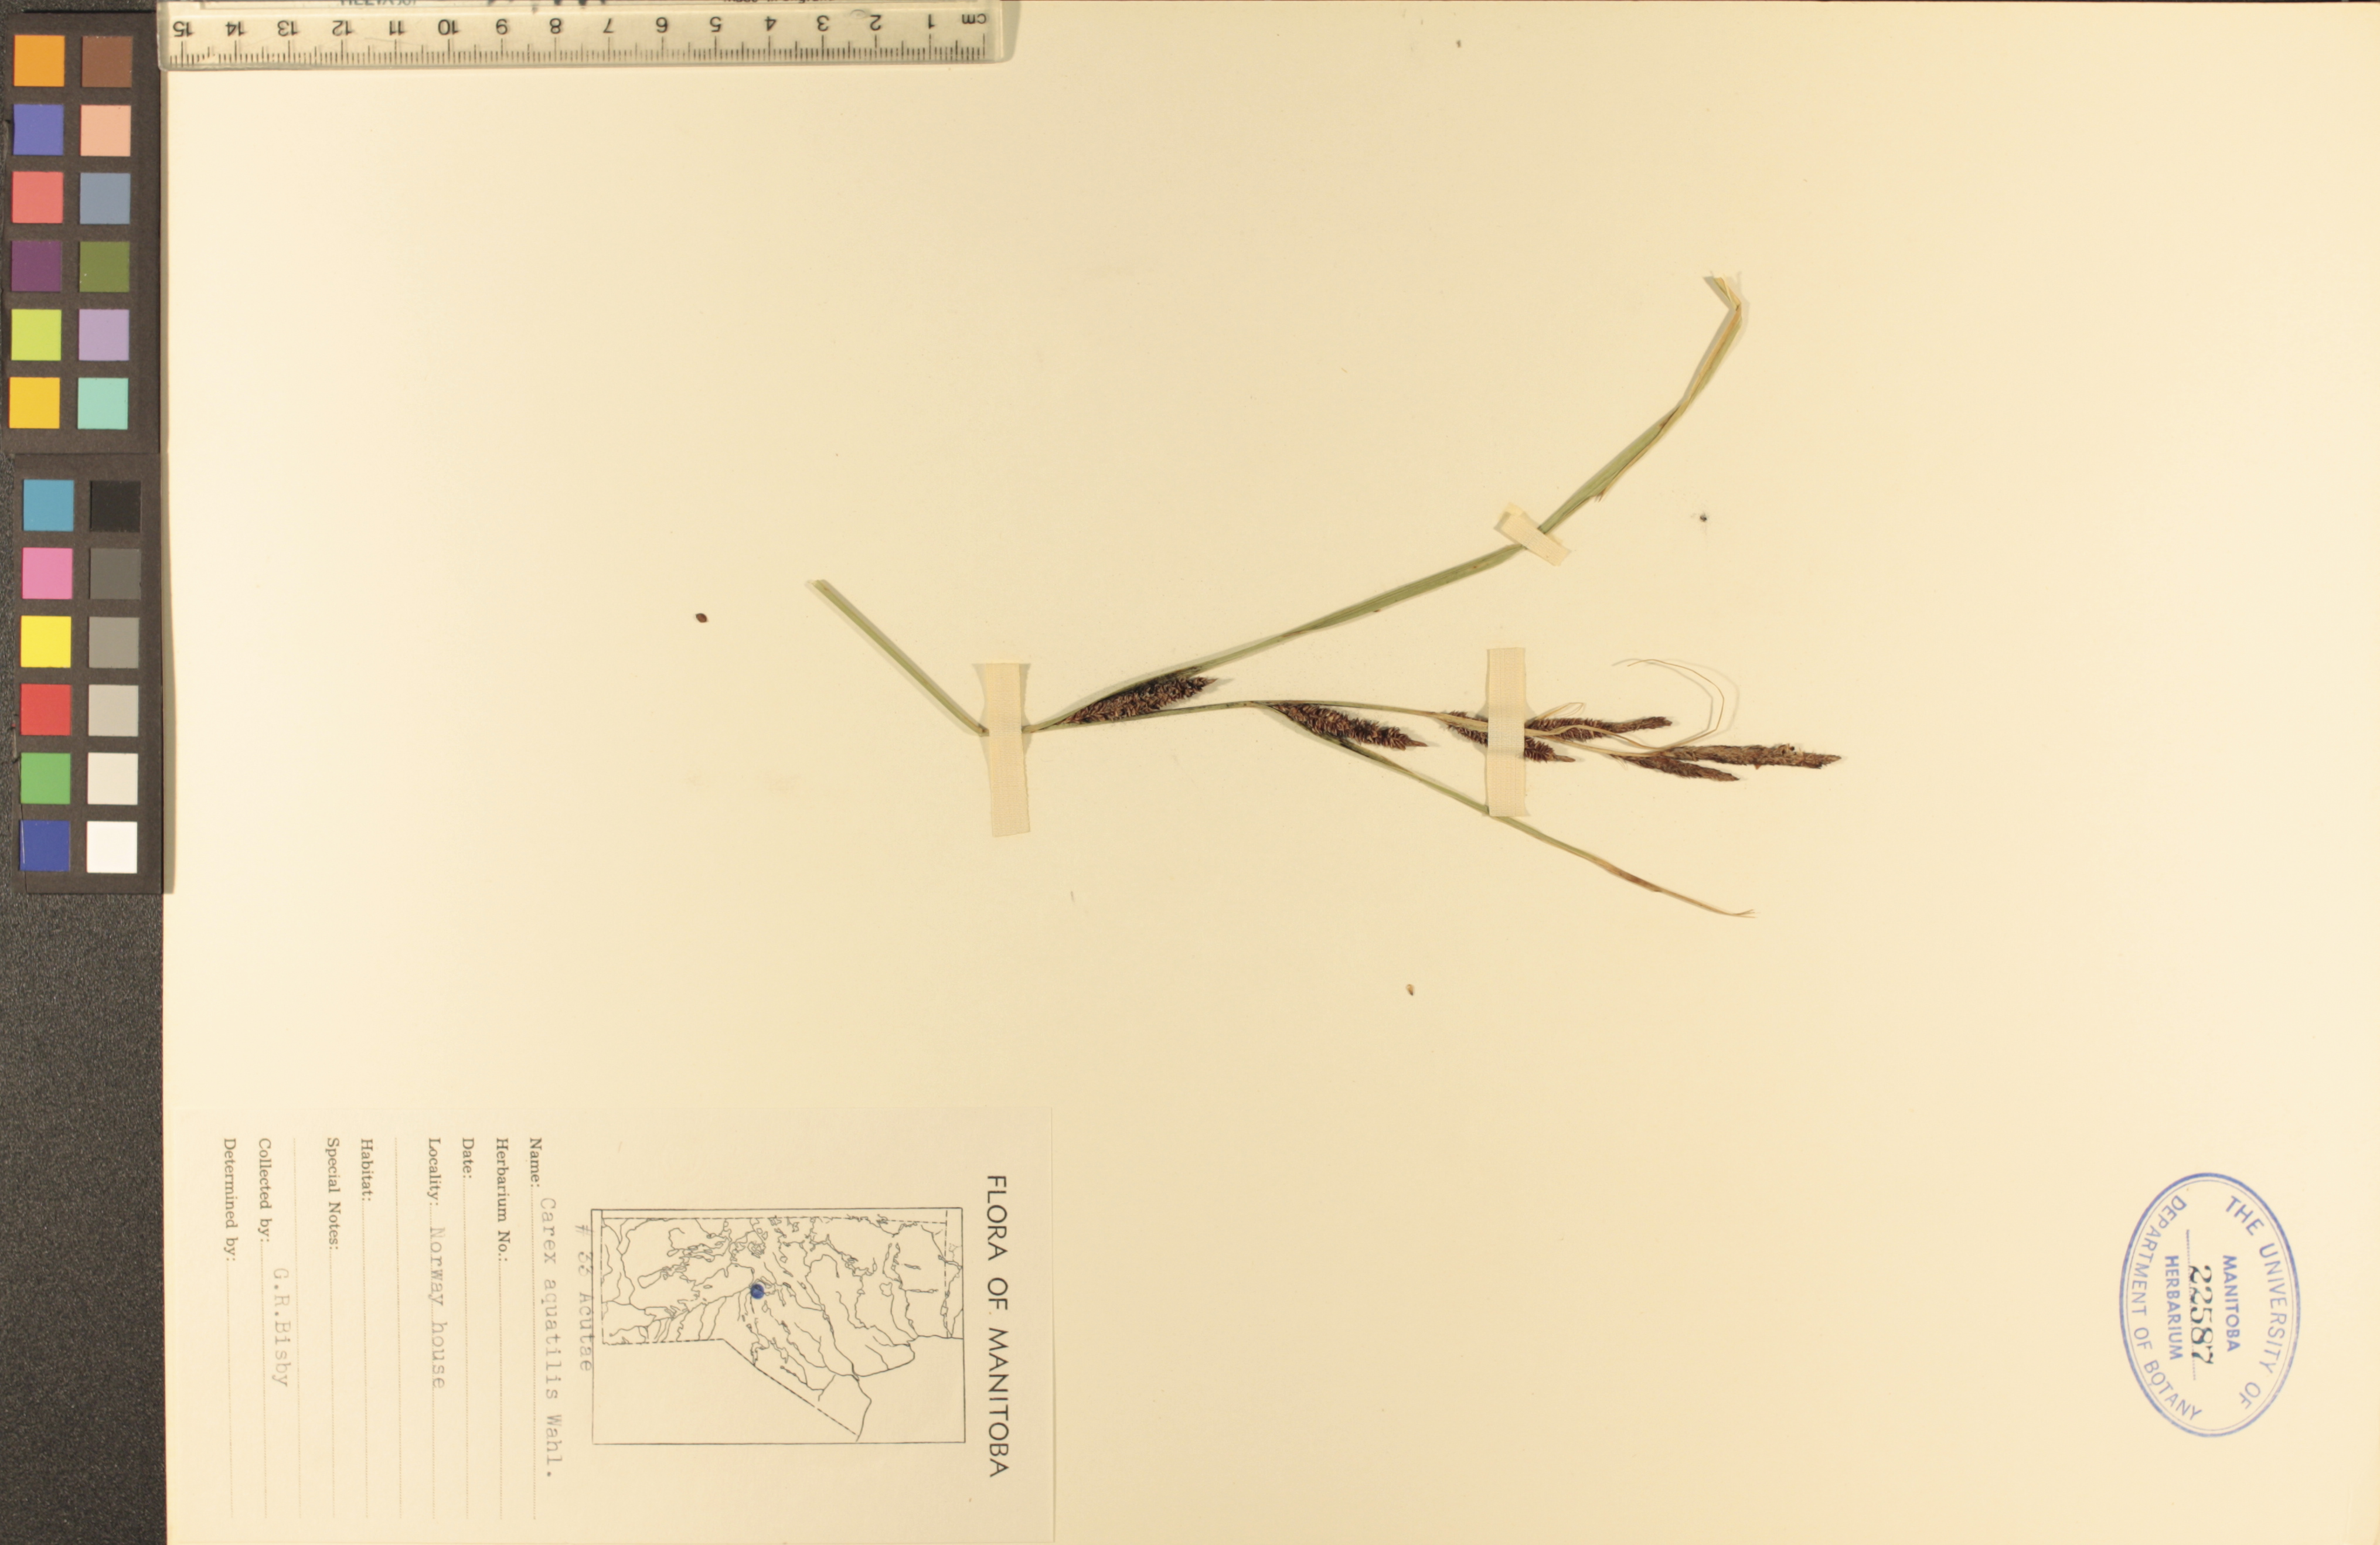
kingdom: Plantae
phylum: Tracheophyta
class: Liliopsida
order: Poales
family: Cyperaceae
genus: Carex
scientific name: Carex aquatilis
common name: Water sedge
